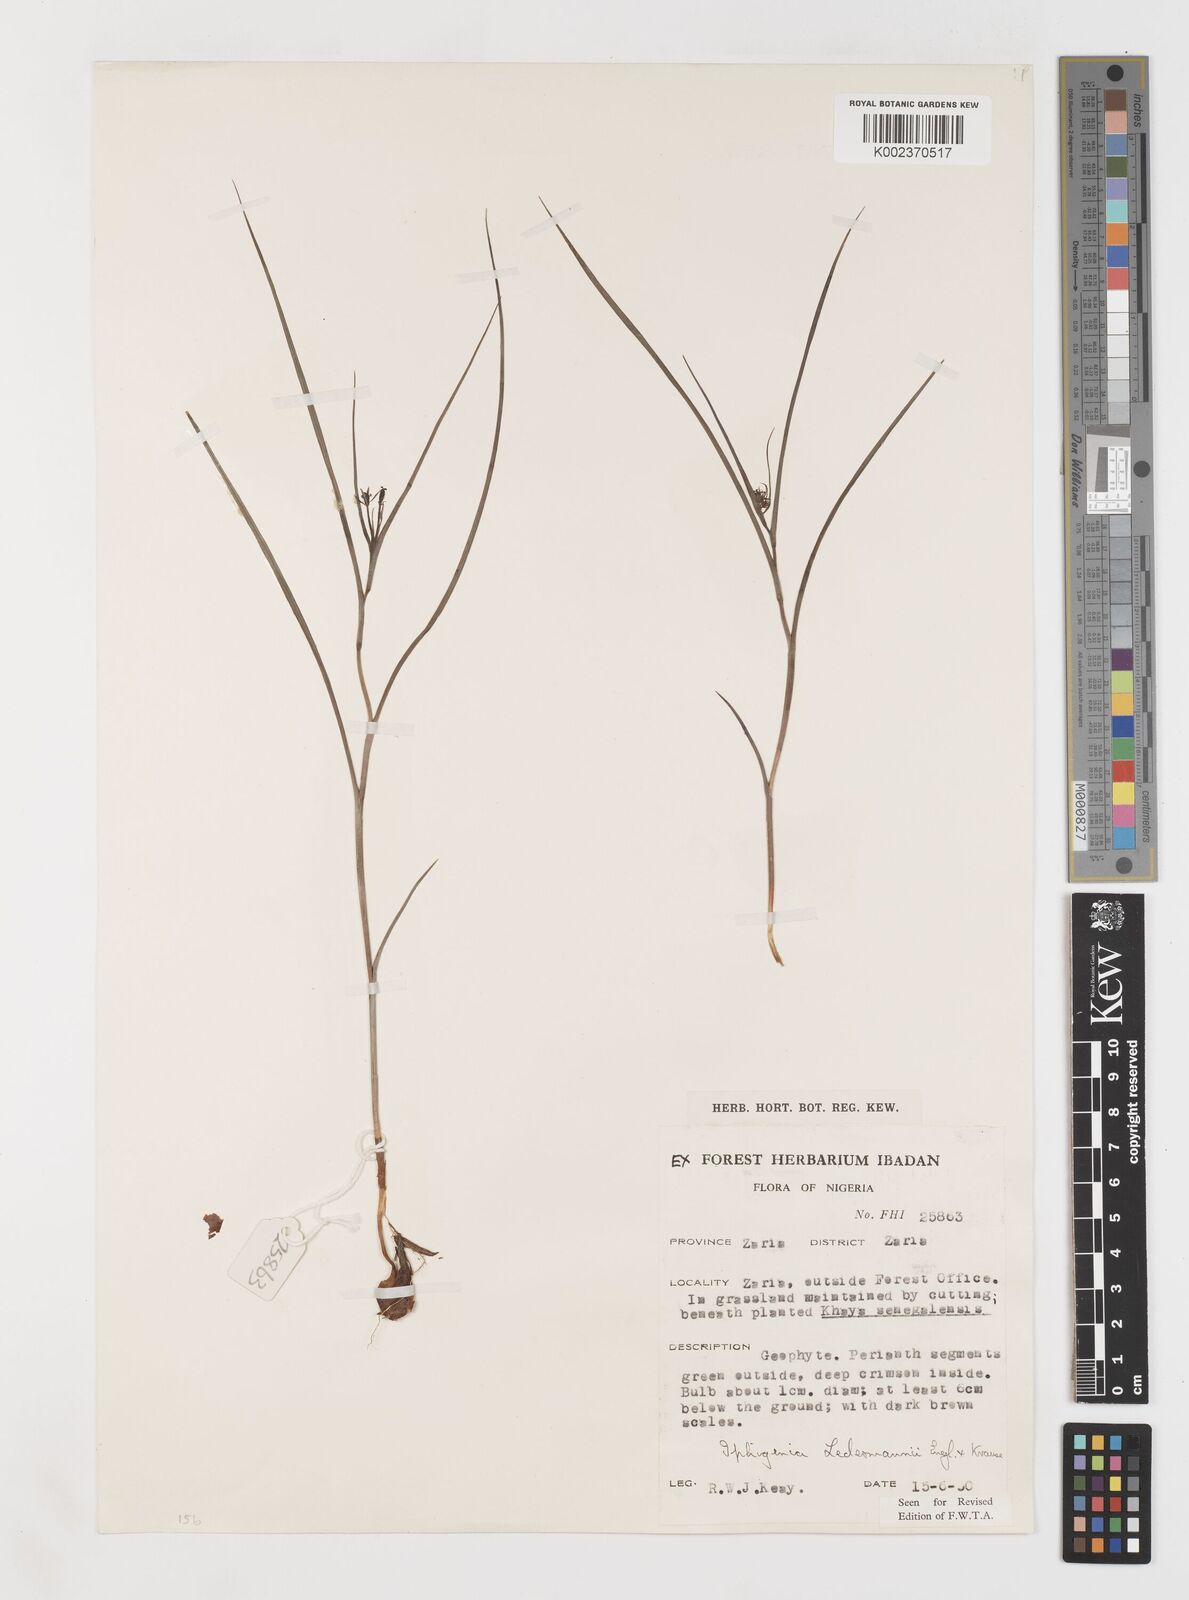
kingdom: Plantae
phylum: Tracheophyta
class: Liliopsida
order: Liliales
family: Colchicaceae
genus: Iphigenia
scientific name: Iphigenia pauciflora
